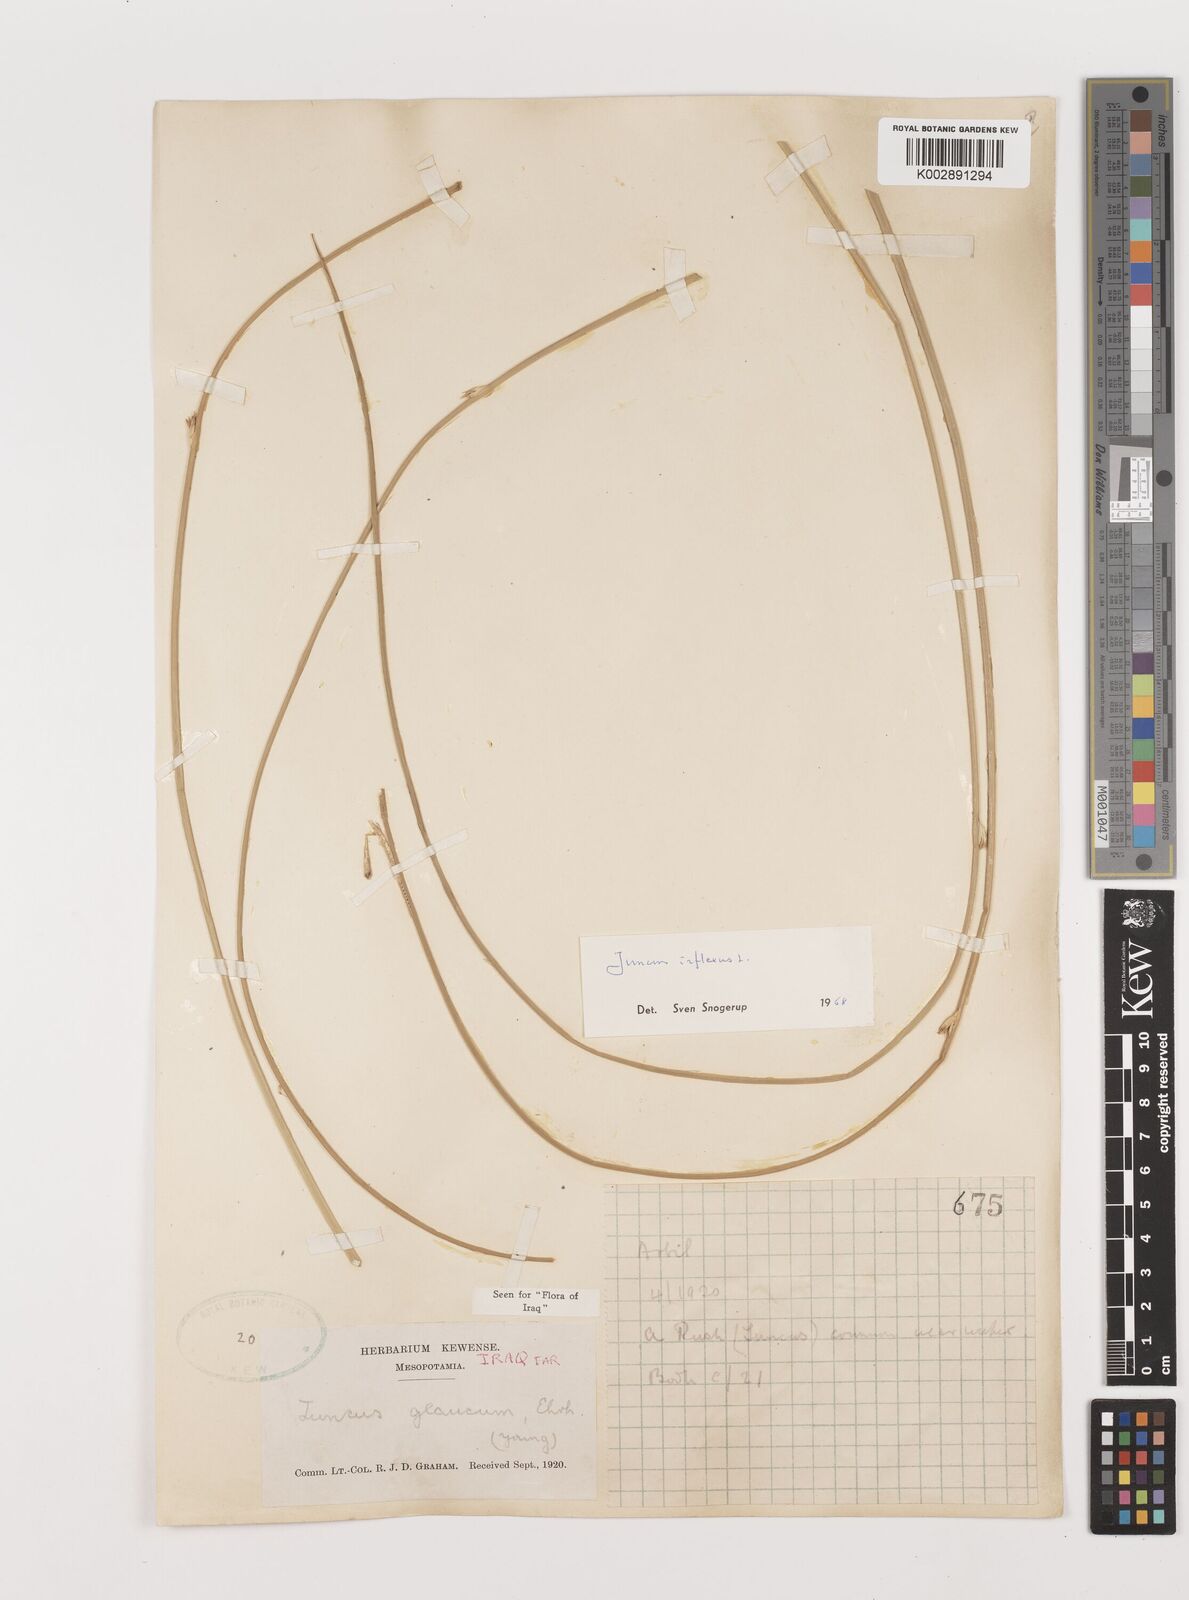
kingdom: Plantae
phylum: Tracheophyta
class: Liliopsida
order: Poales
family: Juncaceae
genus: Juncus
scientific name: Juncus inflexus
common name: Hard rush
